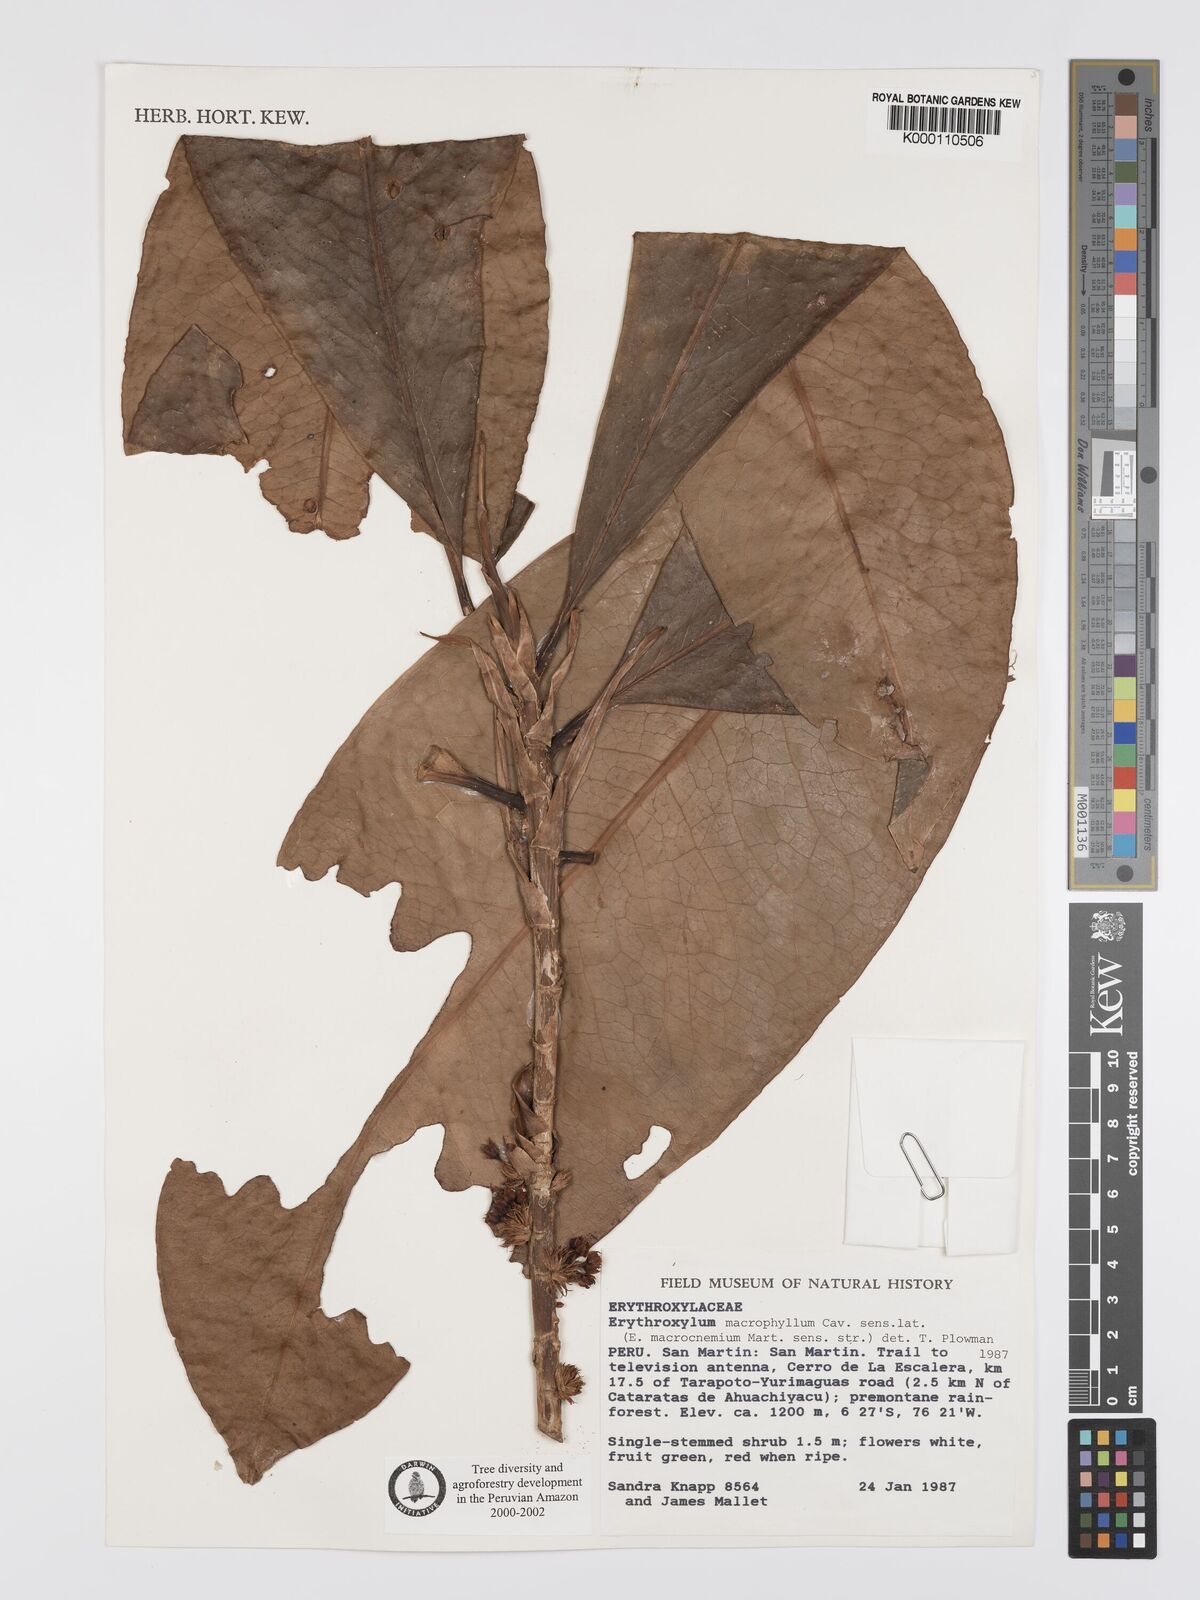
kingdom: Plantae
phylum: Tracheophyta
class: Magnoliopsida
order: Malpighiales
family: Erythroxylaceae
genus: Erythroxylum
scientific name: Erythroxylum
